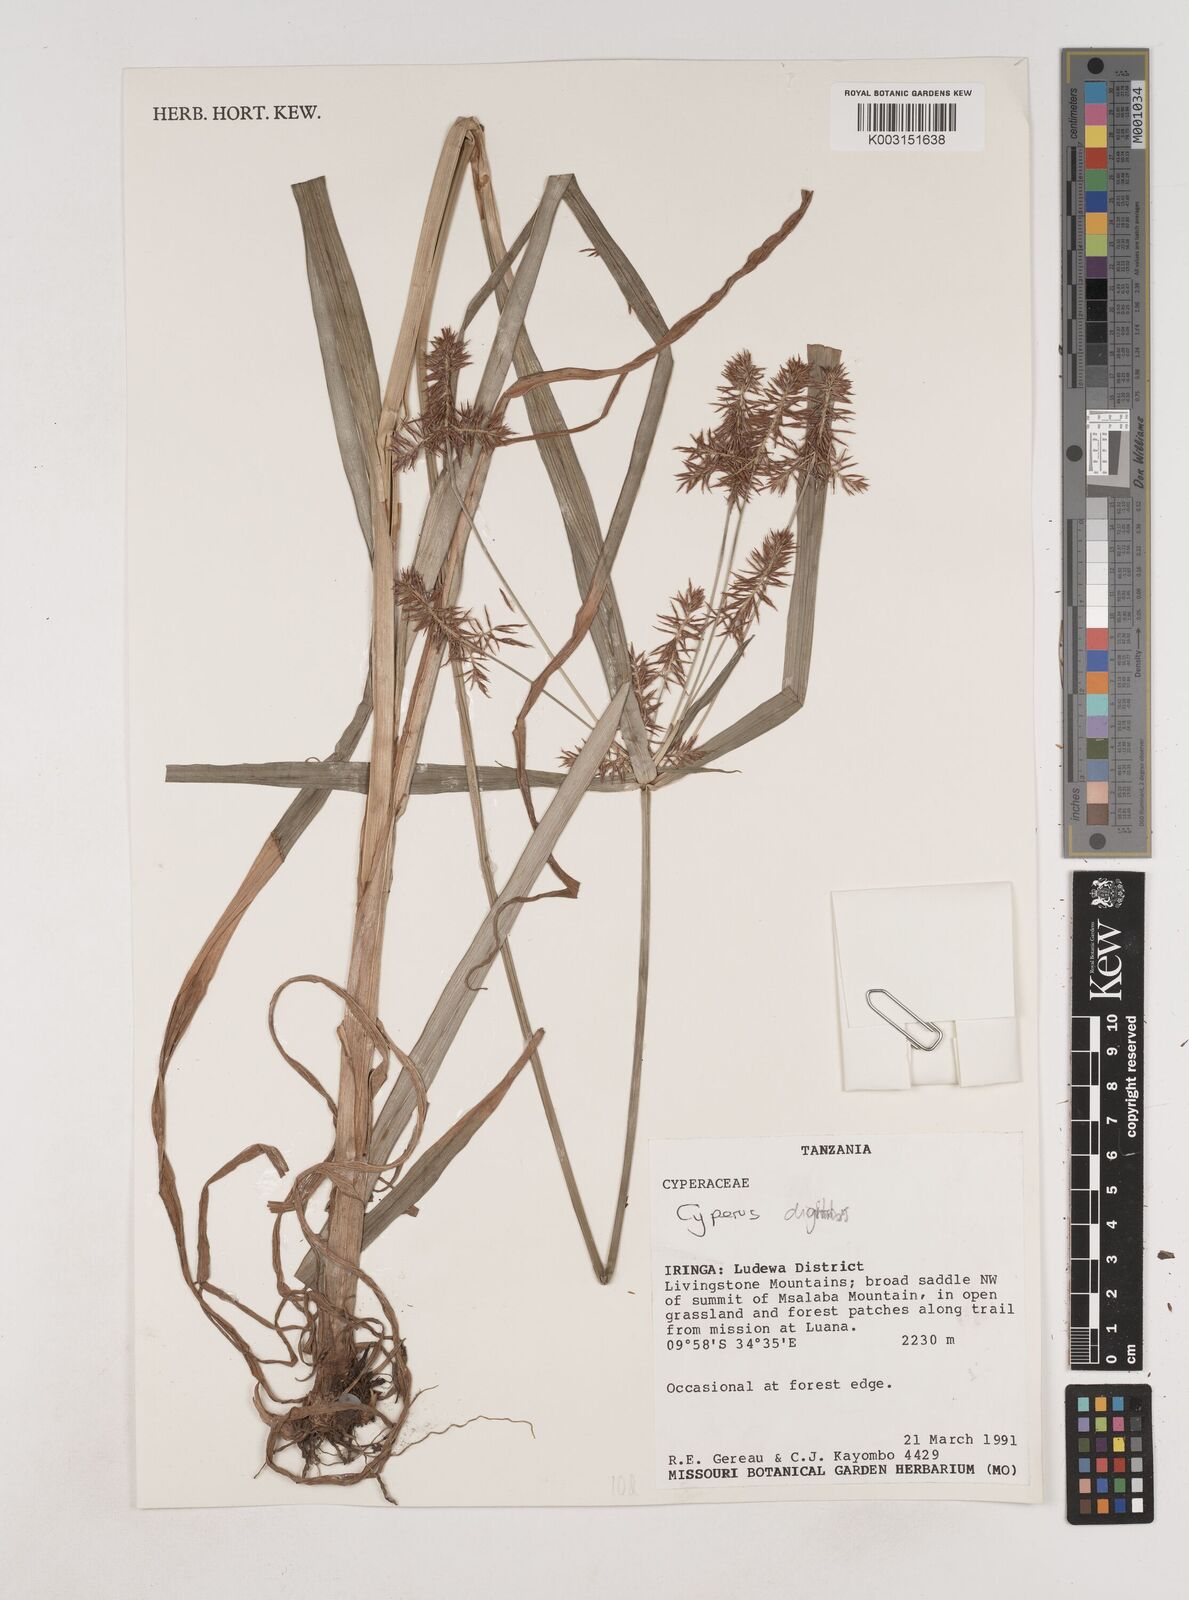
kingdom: Plantae
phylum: Tracheophyta
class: Liliopsida
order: Poales
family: Cyperaceae
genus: Cyperus
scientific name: Cyperus digitatus
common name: Finger flatsedge
